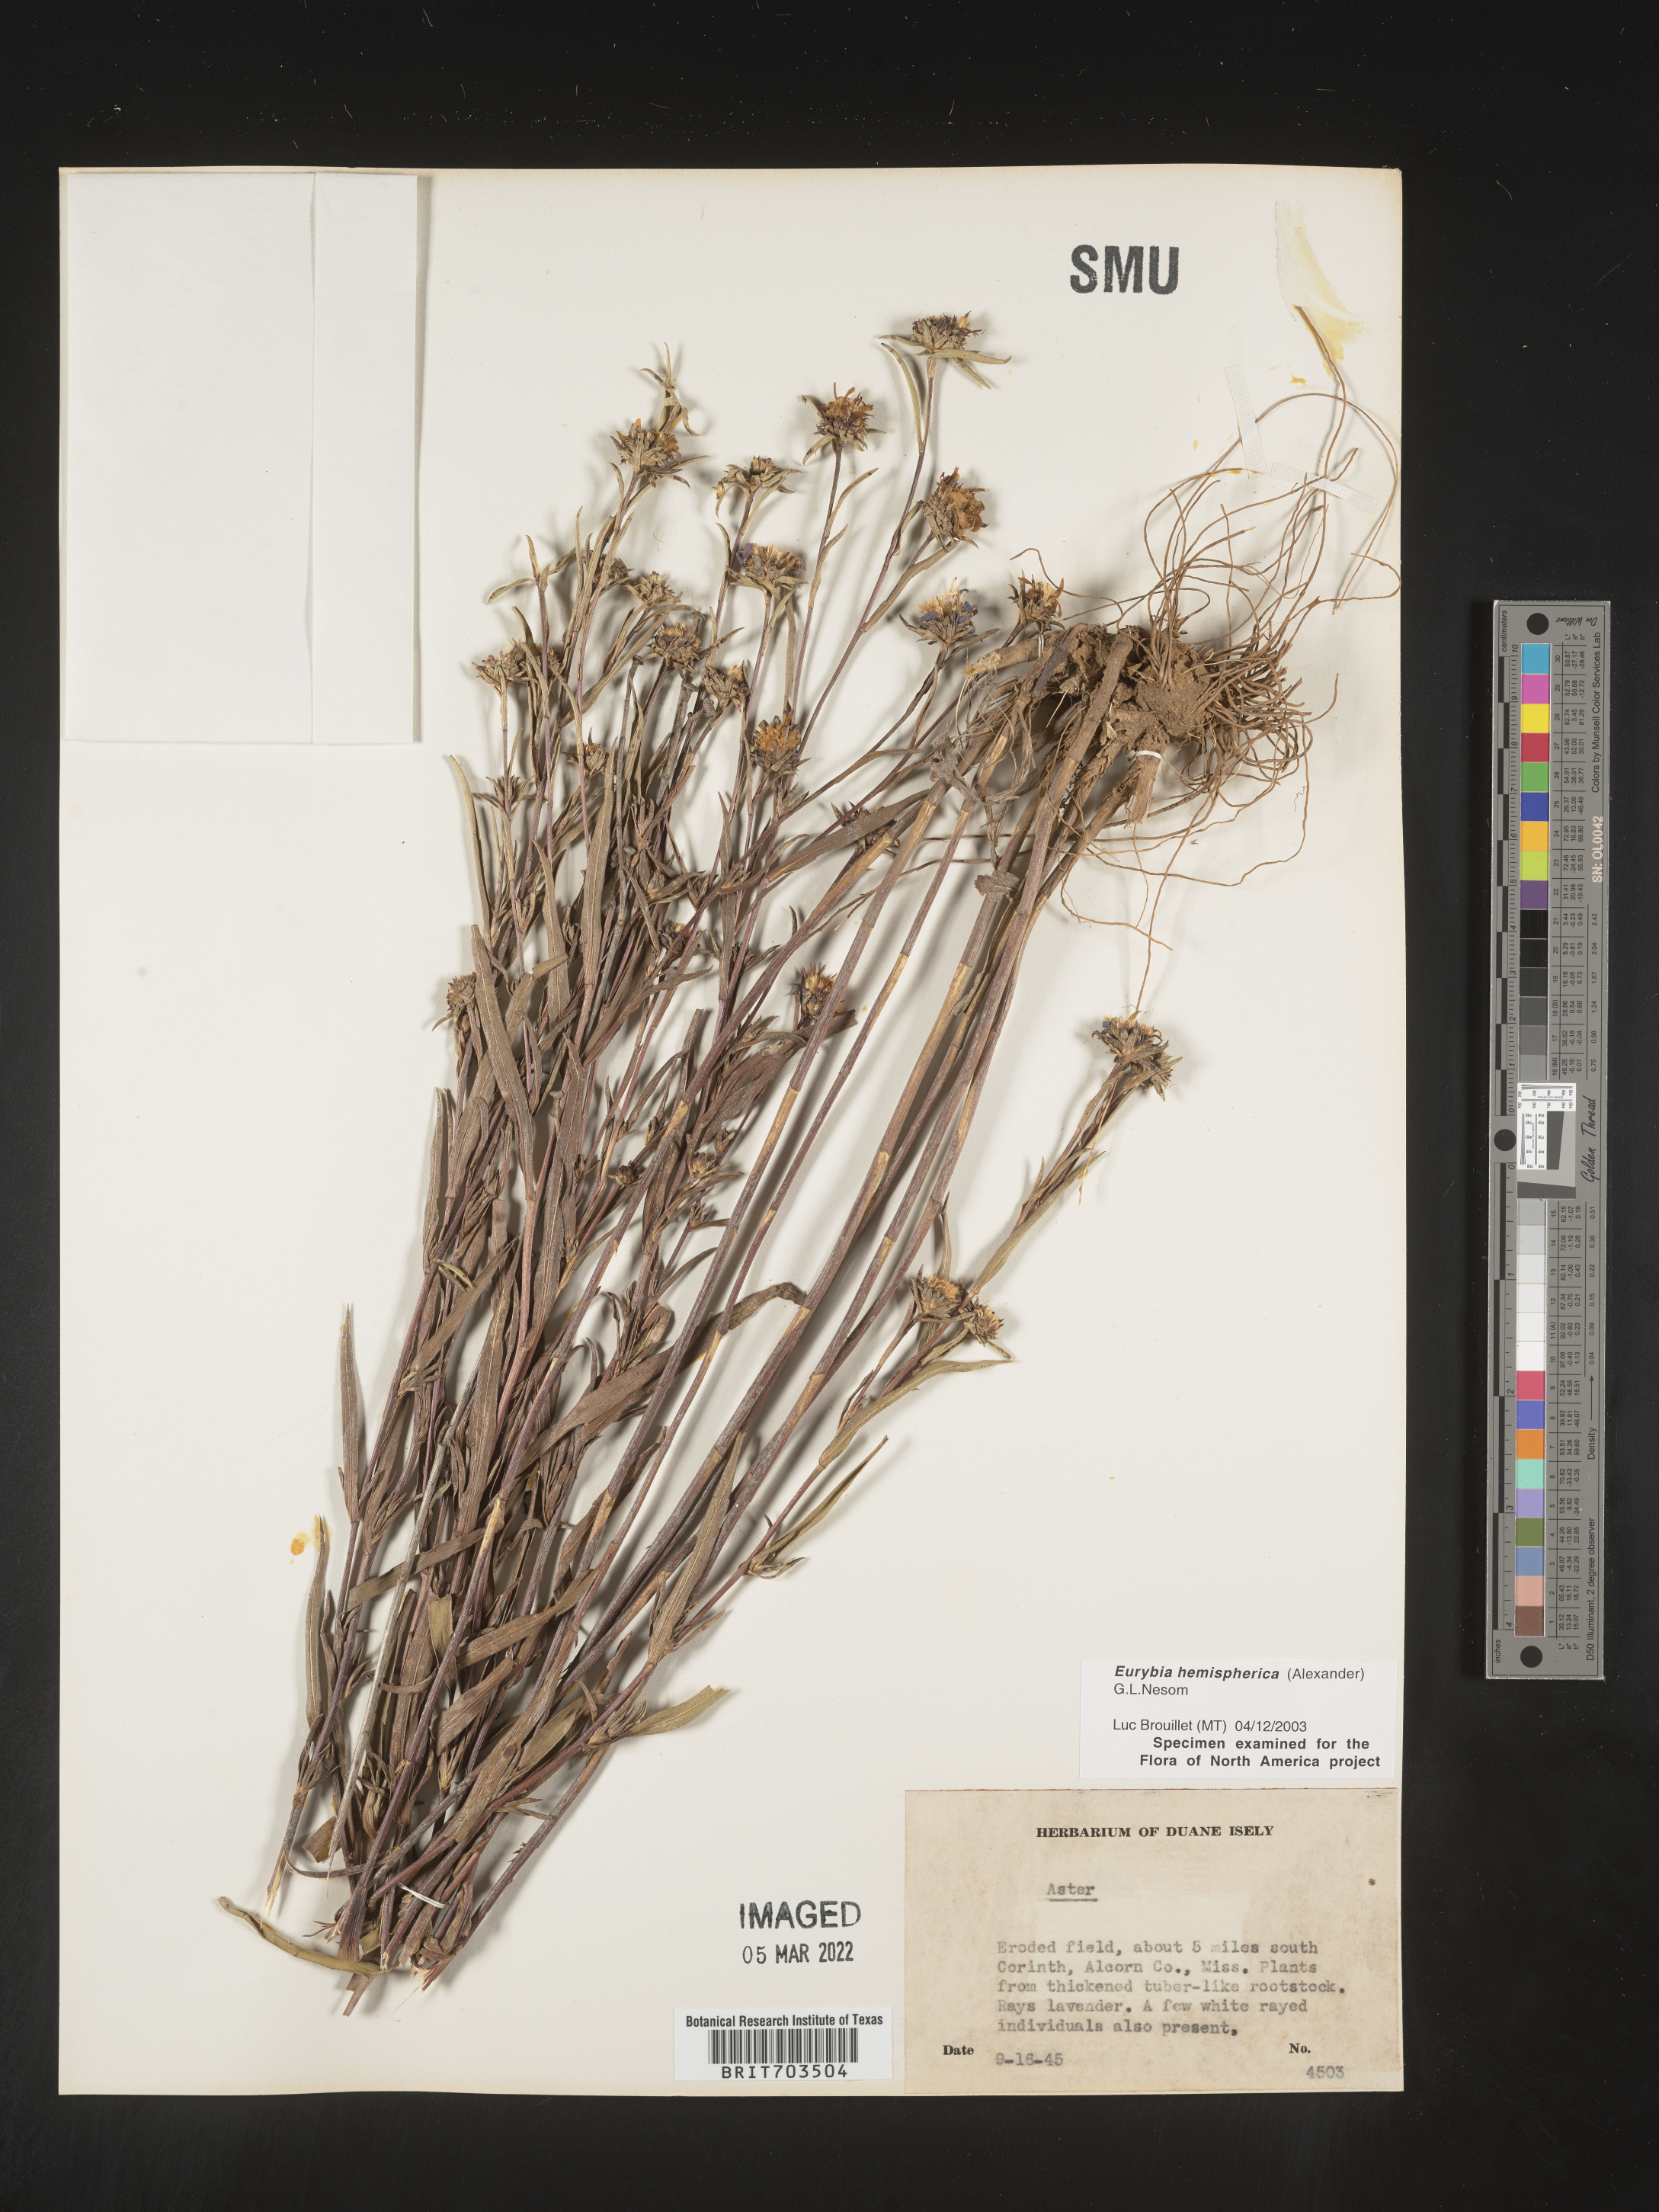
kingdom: Plantae
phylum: Tracheophyta
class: Magnoliopsida
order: Asterales
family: Asteraceae
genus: Eurybia
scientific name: Eurybia hemispherica
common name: Showy aster
